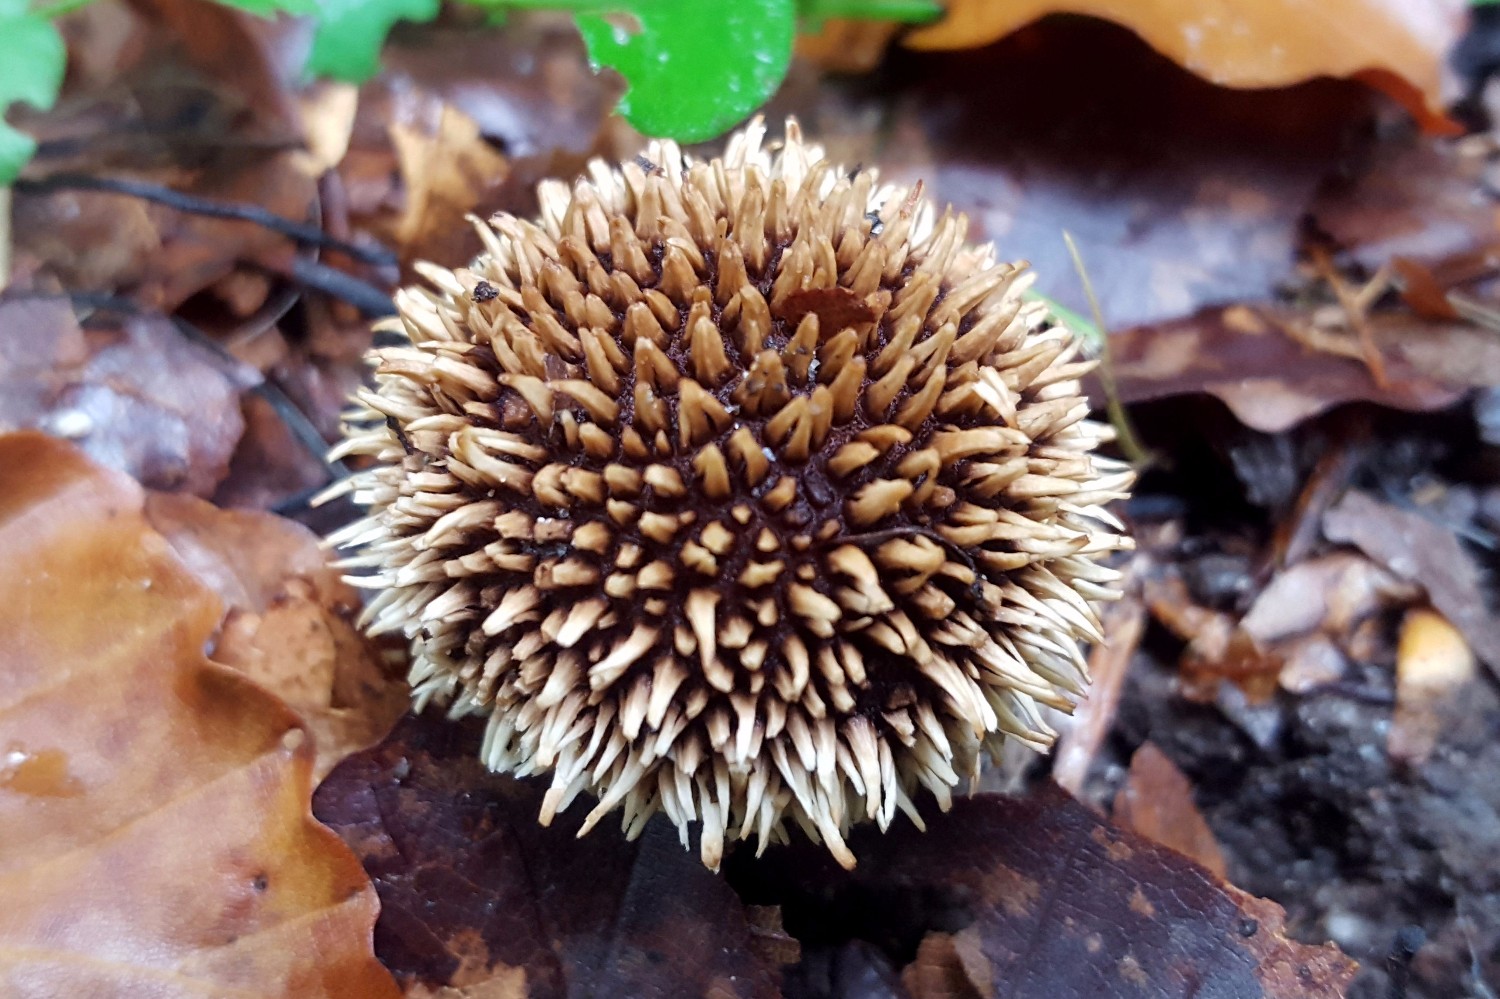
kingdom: Fungi
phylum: Basidiomycota
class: Agaricomycetes
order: Agaricales
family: Lycoperdaceae
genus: Lycoperdon
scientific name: Lycoperdon echinatum
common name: pindsvine-støvbold
